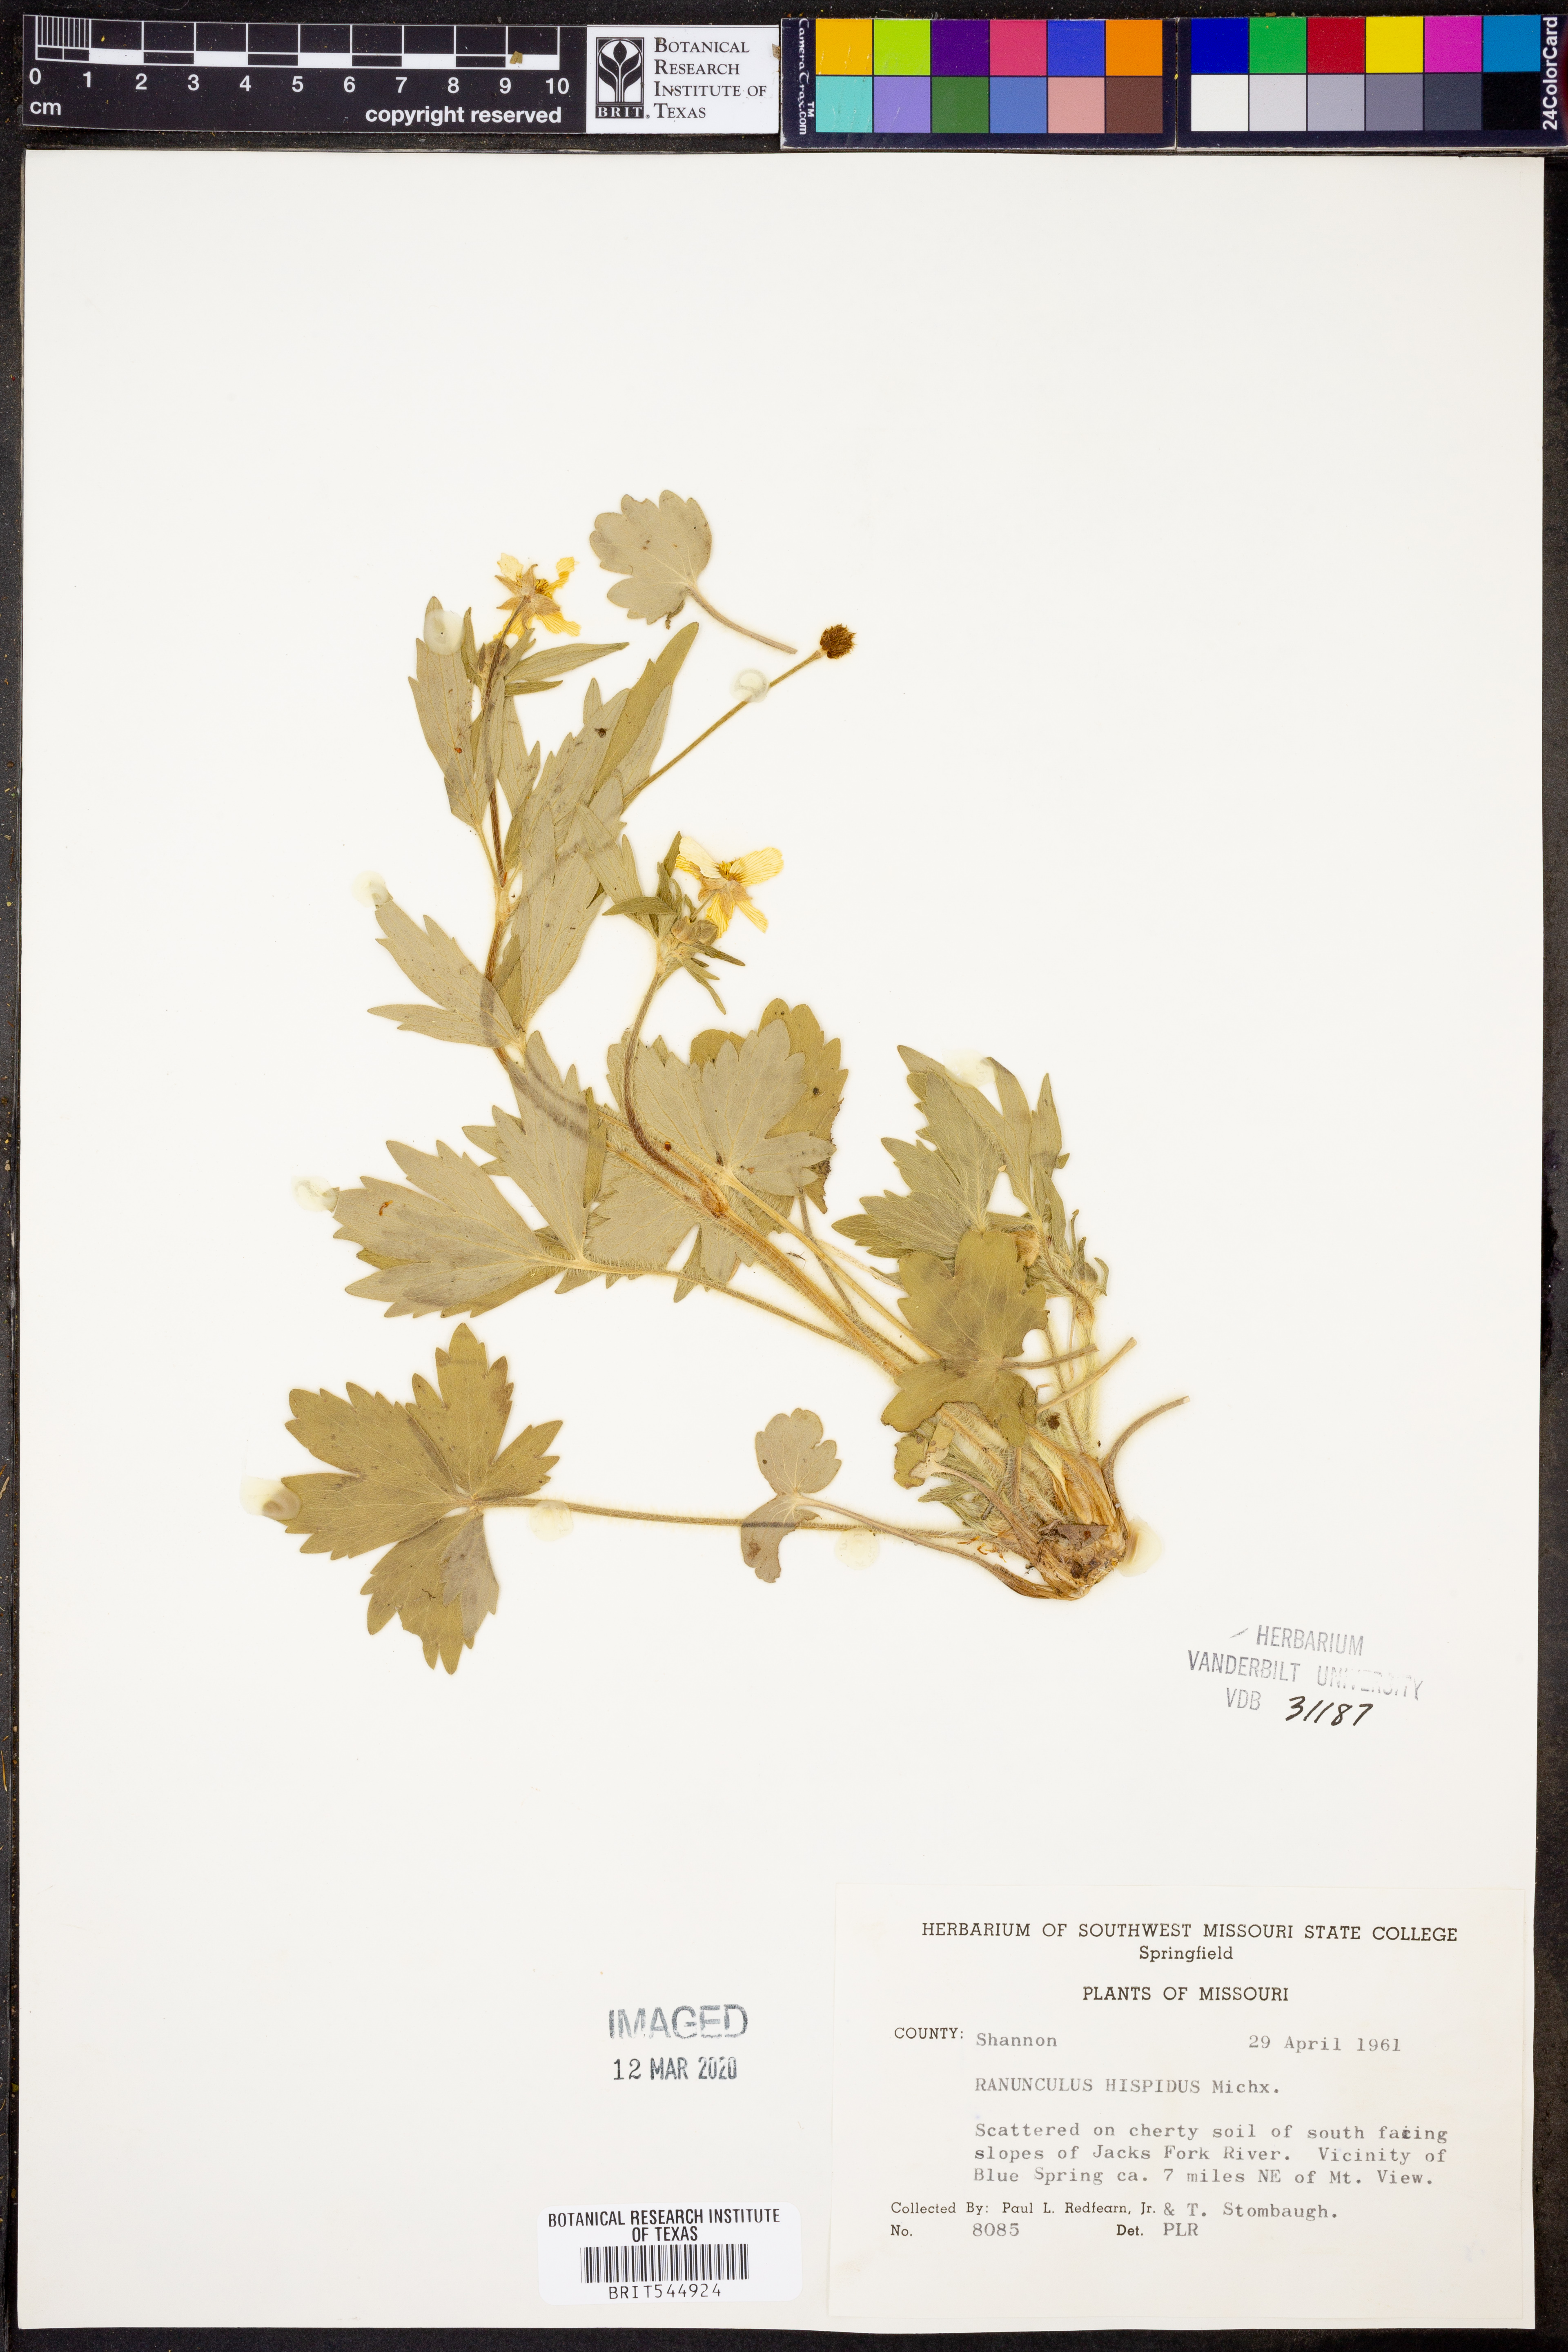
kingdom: Plantae
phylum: Tracheophyta
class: Magnoliopsida
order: Ranunculales
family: Ranunculaceae
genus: Ranunculus
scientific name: Ranunculus hispidus
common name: Bristly buttercup
